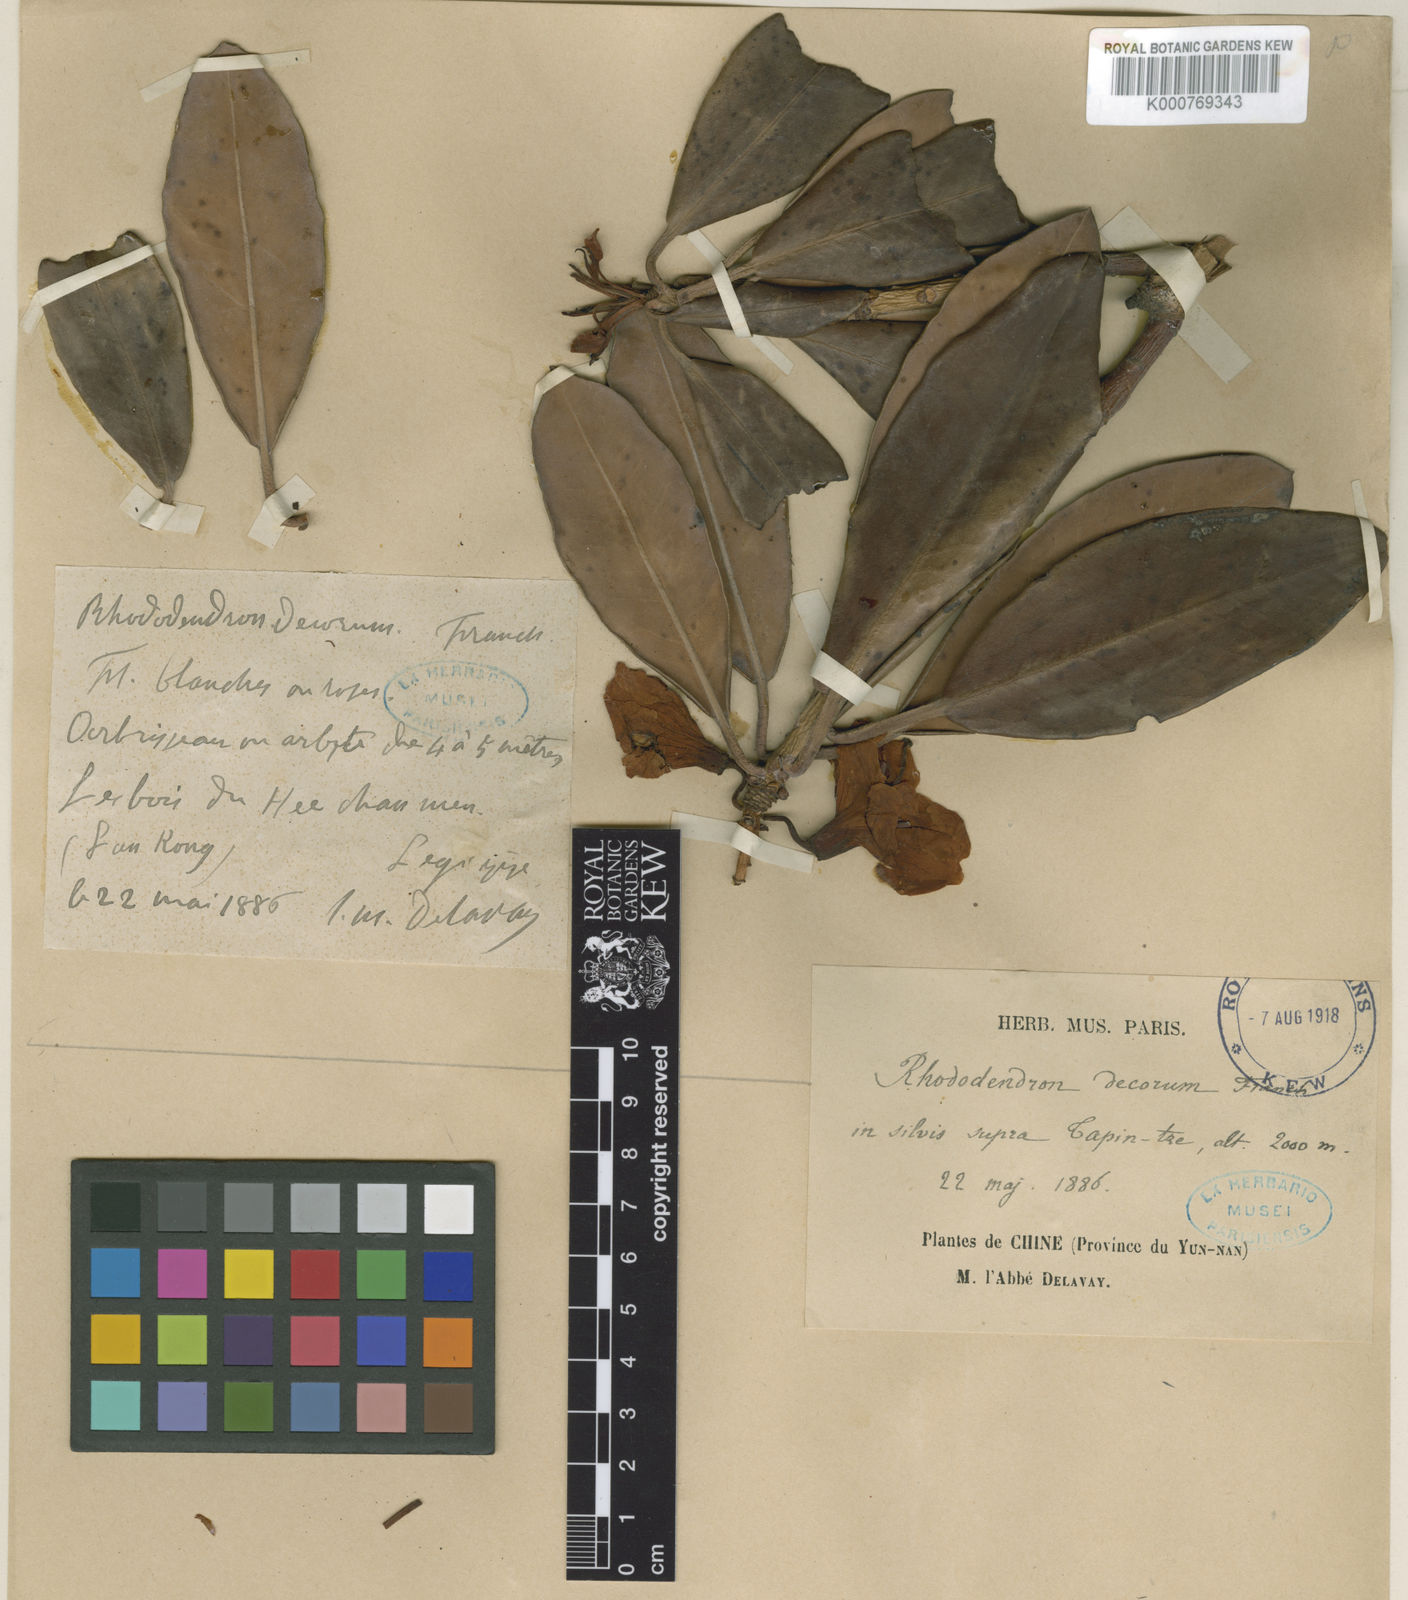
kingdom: Plantae
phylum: Tracheophyta
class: Magnoliopsida
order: Ericales
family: Ericaceae
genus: Rhododendron
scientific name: Rhododendron decorum
